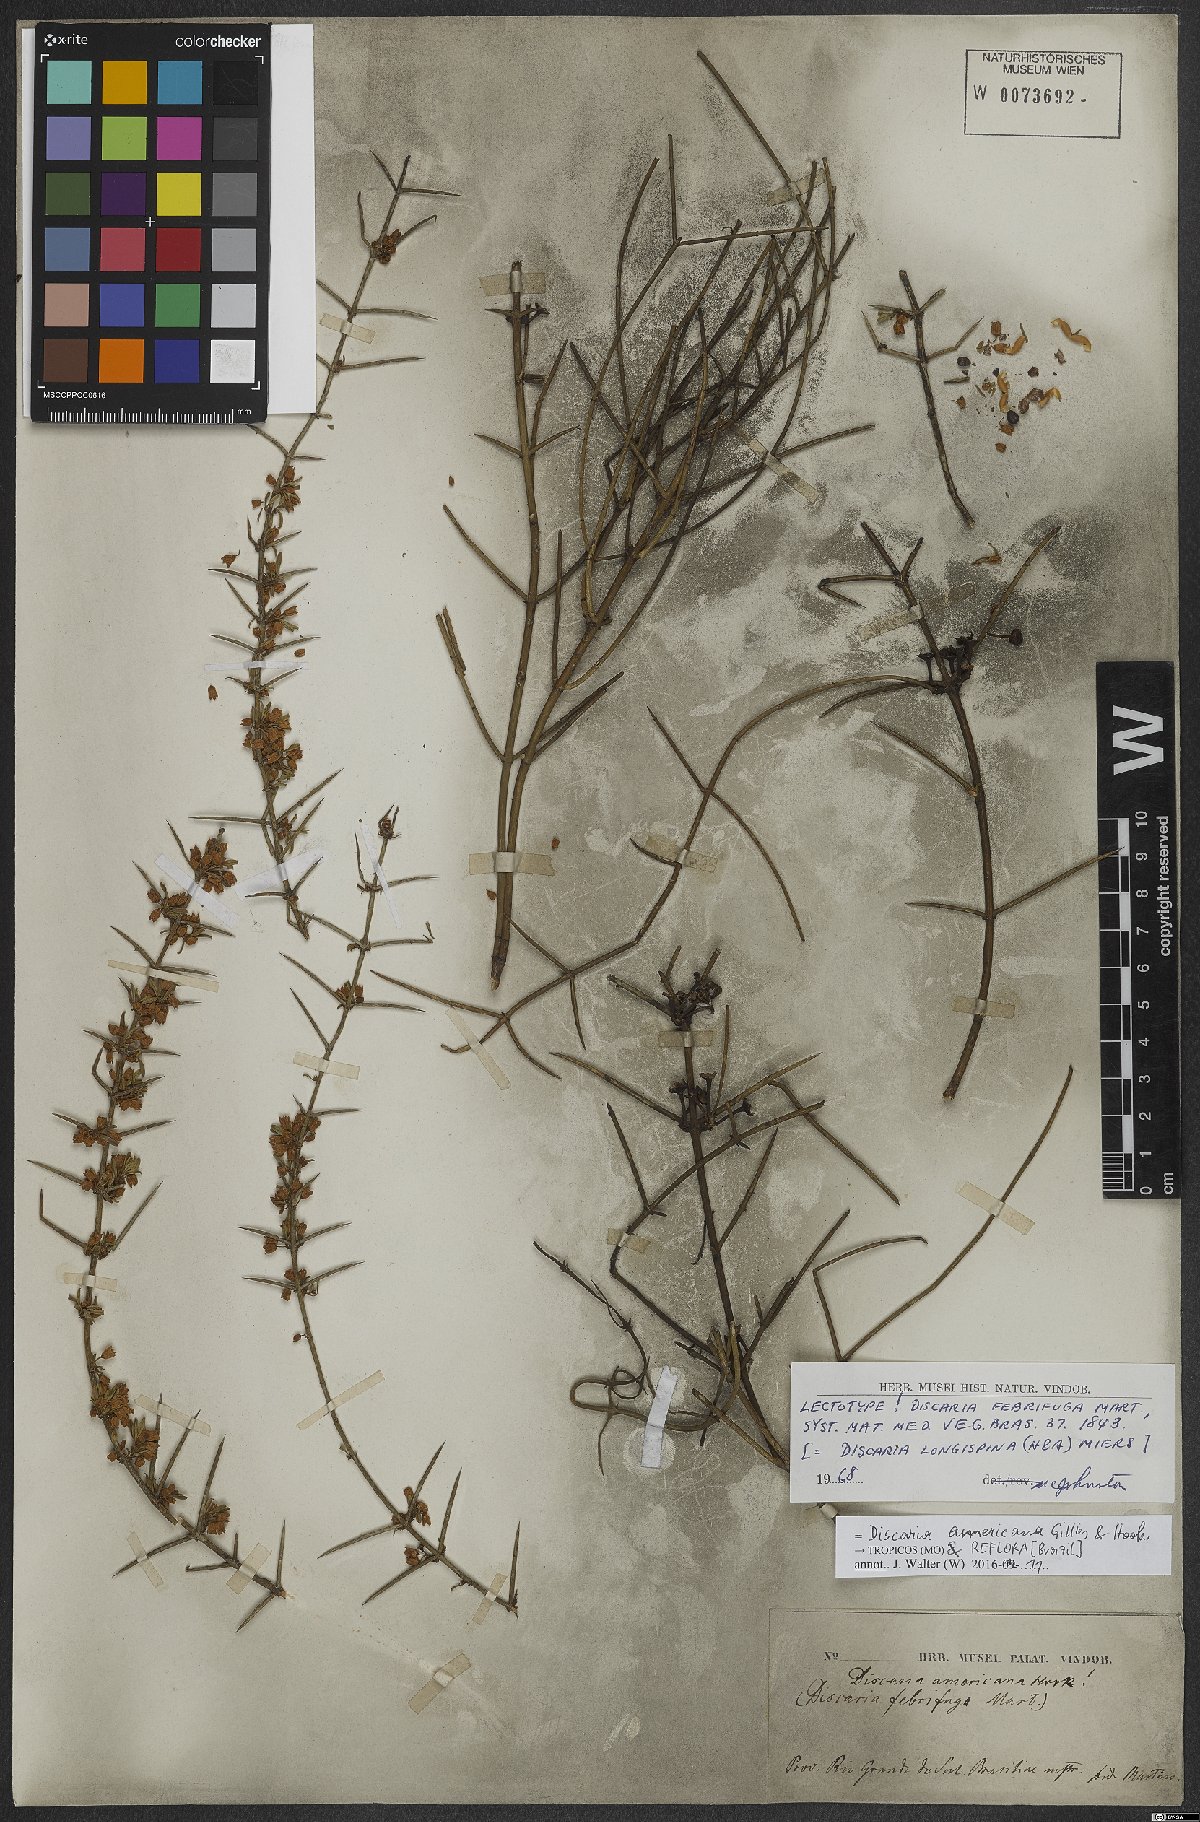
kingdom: Plantae
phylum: Tracheophyta
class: Magnoliopsida
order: Rosales
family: Rhamnaceae
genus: Discaria
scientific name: Discaria americana
